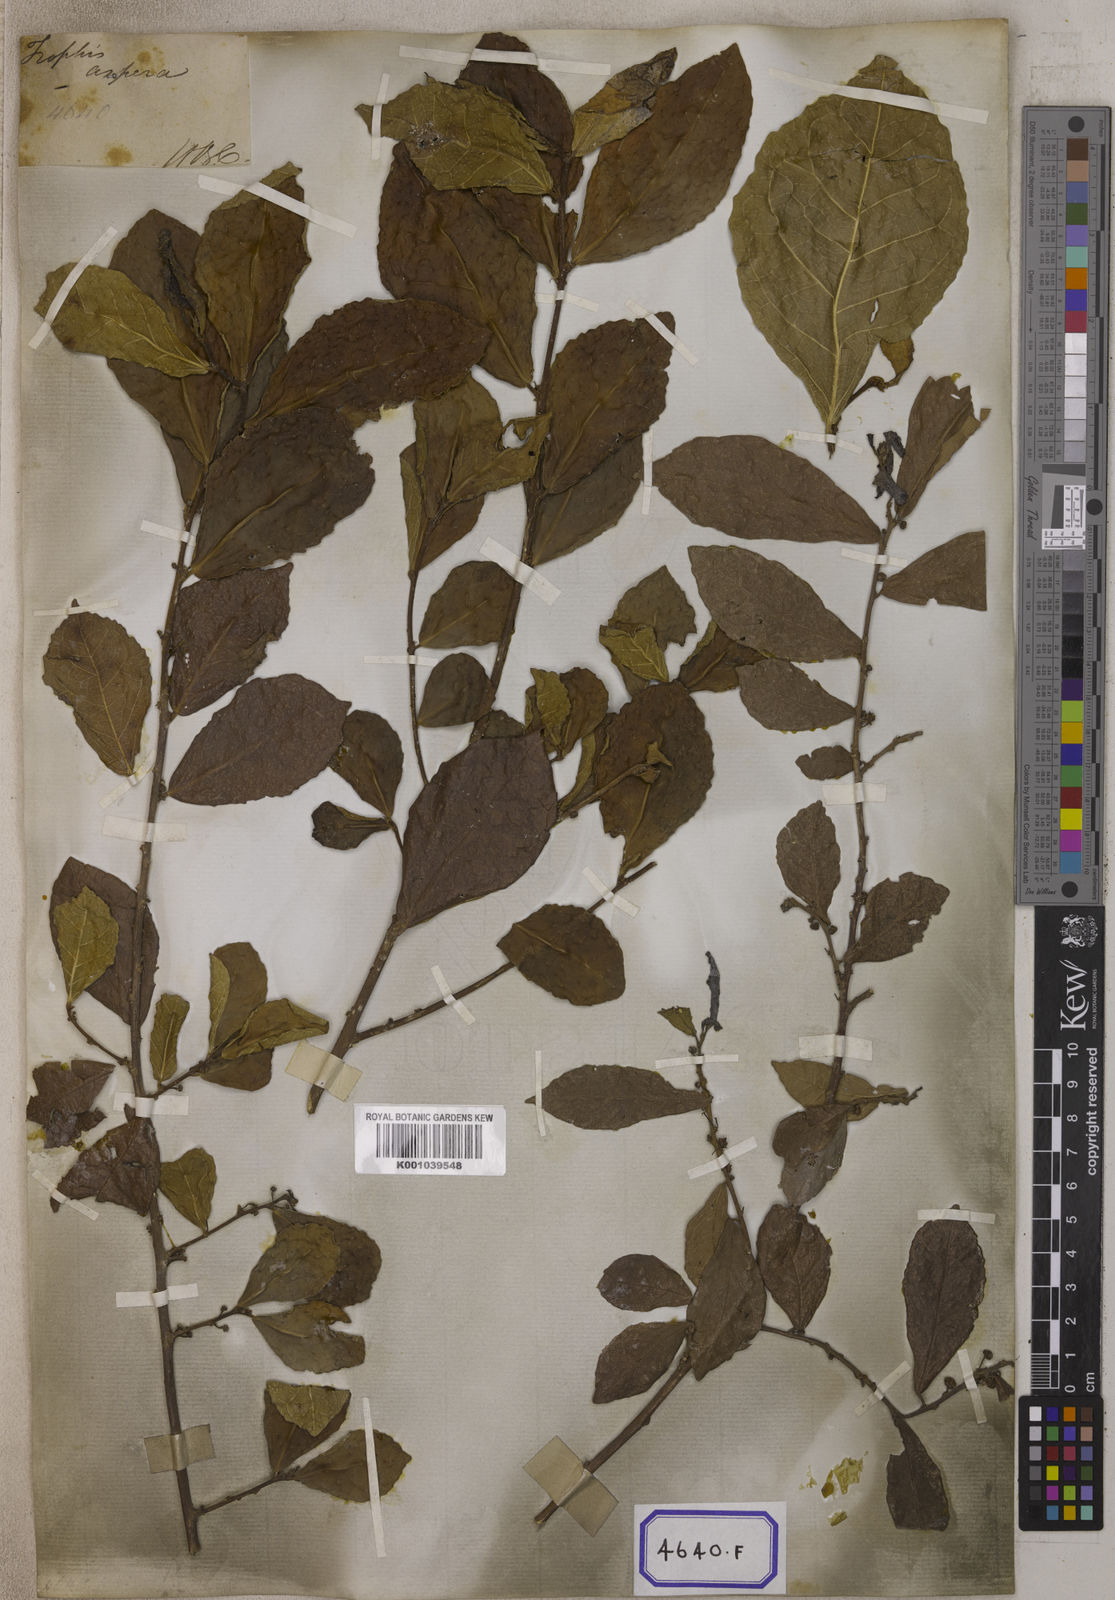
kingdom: Plantae
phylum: Tracheophyta
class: Magnoliopsida
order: Rosales
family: Moraceae
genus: Streblus
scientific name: Streblus asper
